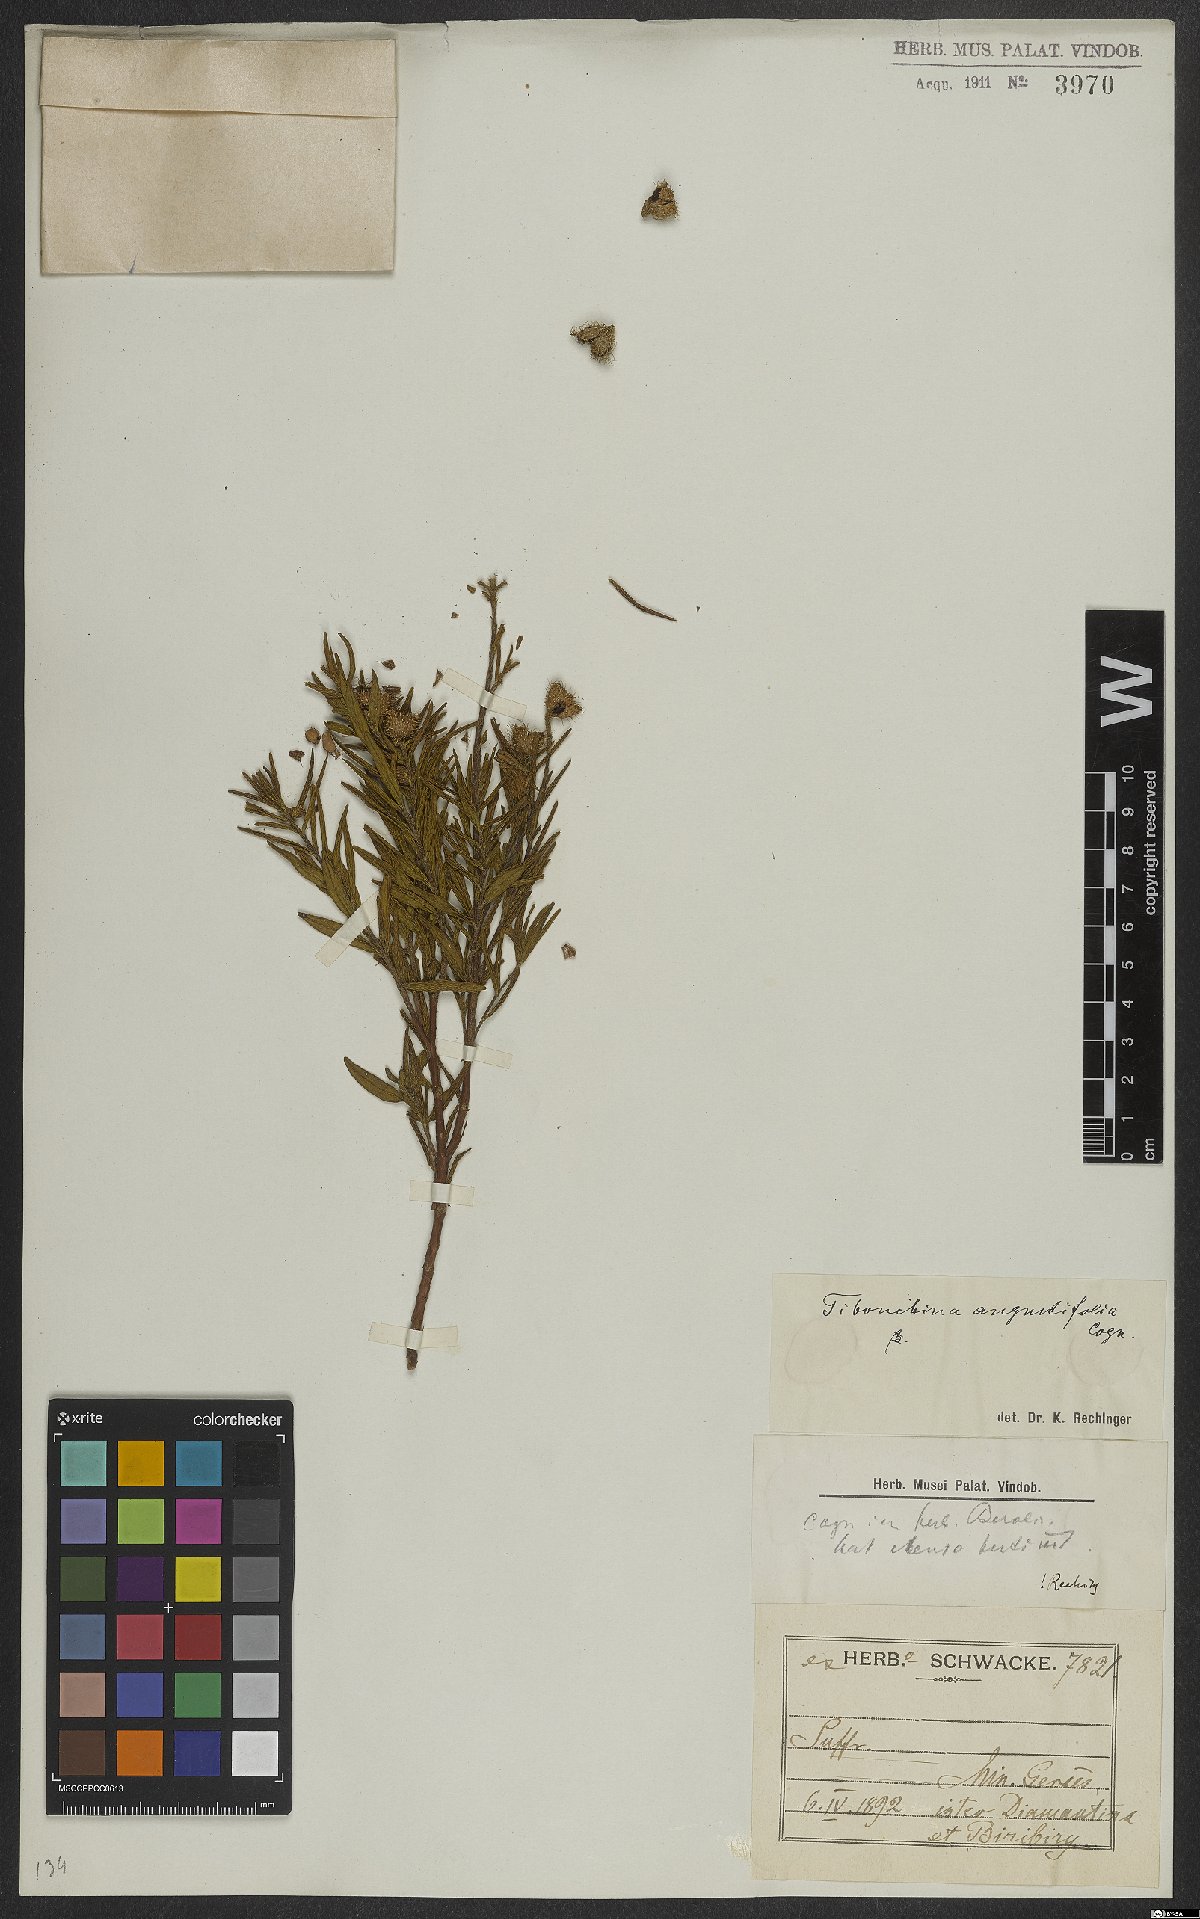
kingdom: Plantae
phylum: Tracheophyta
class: Magnoliopsida
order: Myrtales
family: Melastomataceae
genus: Pleroma
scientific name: Pleroma angustifolium
